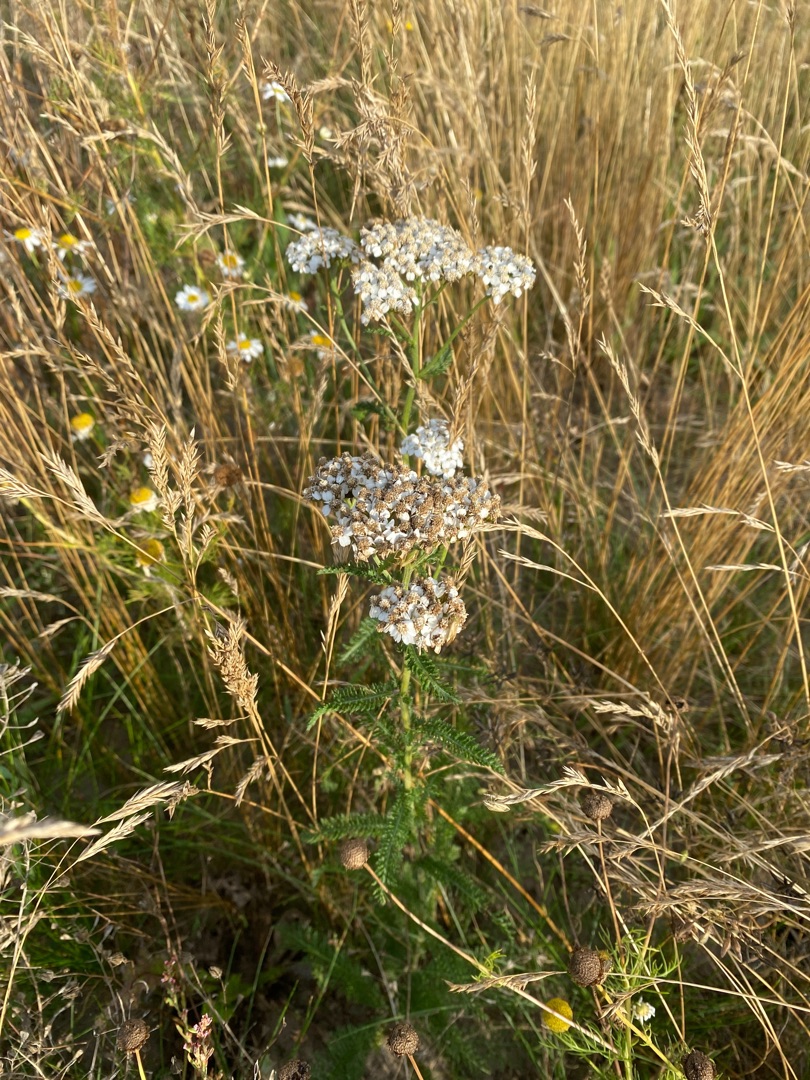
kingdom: Plantae
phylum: Tracheophyta
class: Magnoliopsida
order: Asterales
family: Asteraceae
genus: Achillea
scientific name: Achillea millefolium
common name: Almindelig røllike
